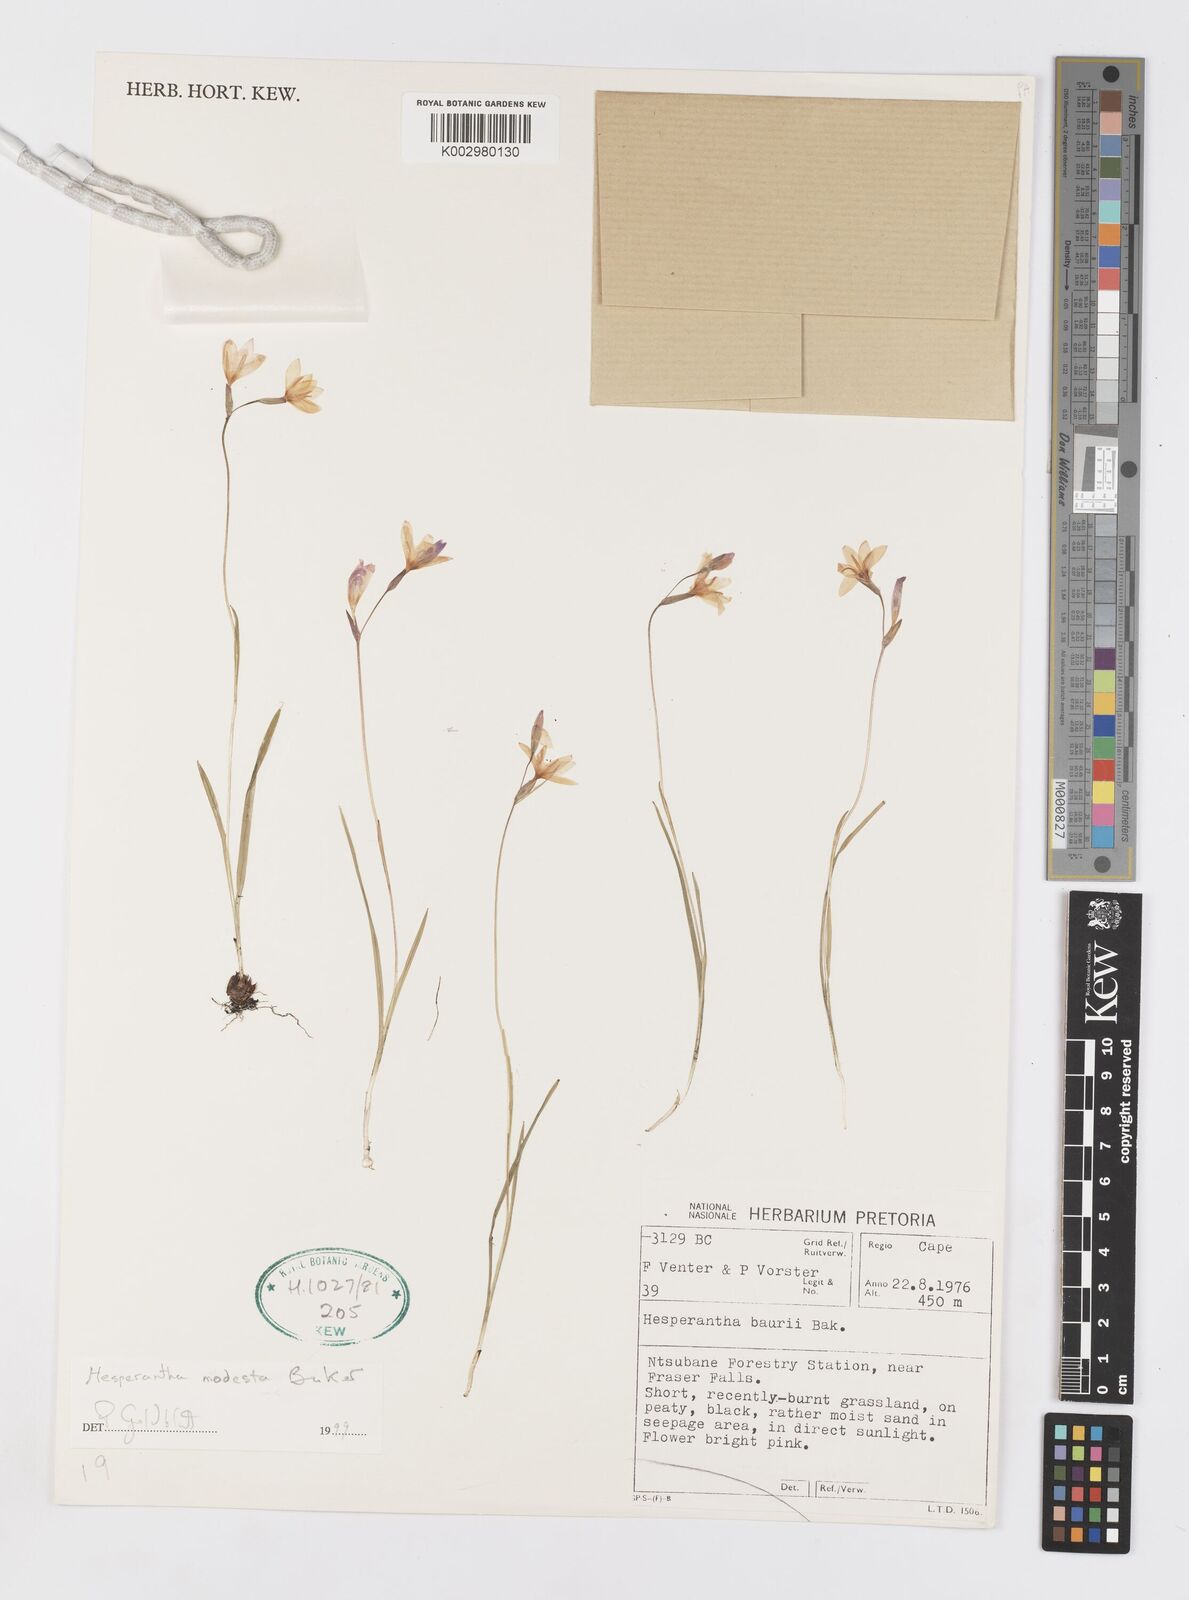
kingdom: Plantae
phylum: Tracheophyta
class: Liliopsida
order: Asparagales
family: Iridaceae
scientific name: Iridaceae
